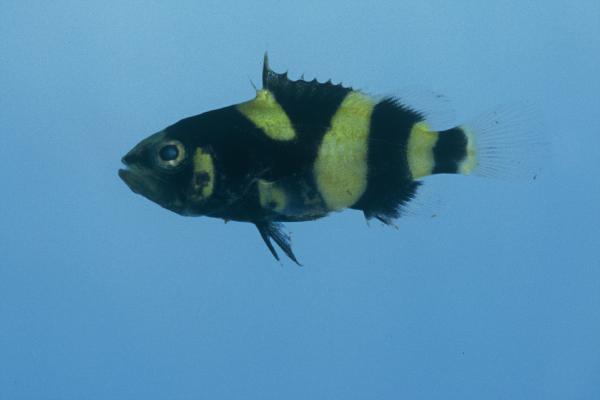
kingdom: Animalia
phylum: Chordata
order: Perciformes
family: Serranidae
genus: Epinephelus
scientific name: Epinephelus lanceolatus
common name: Giant grouper
